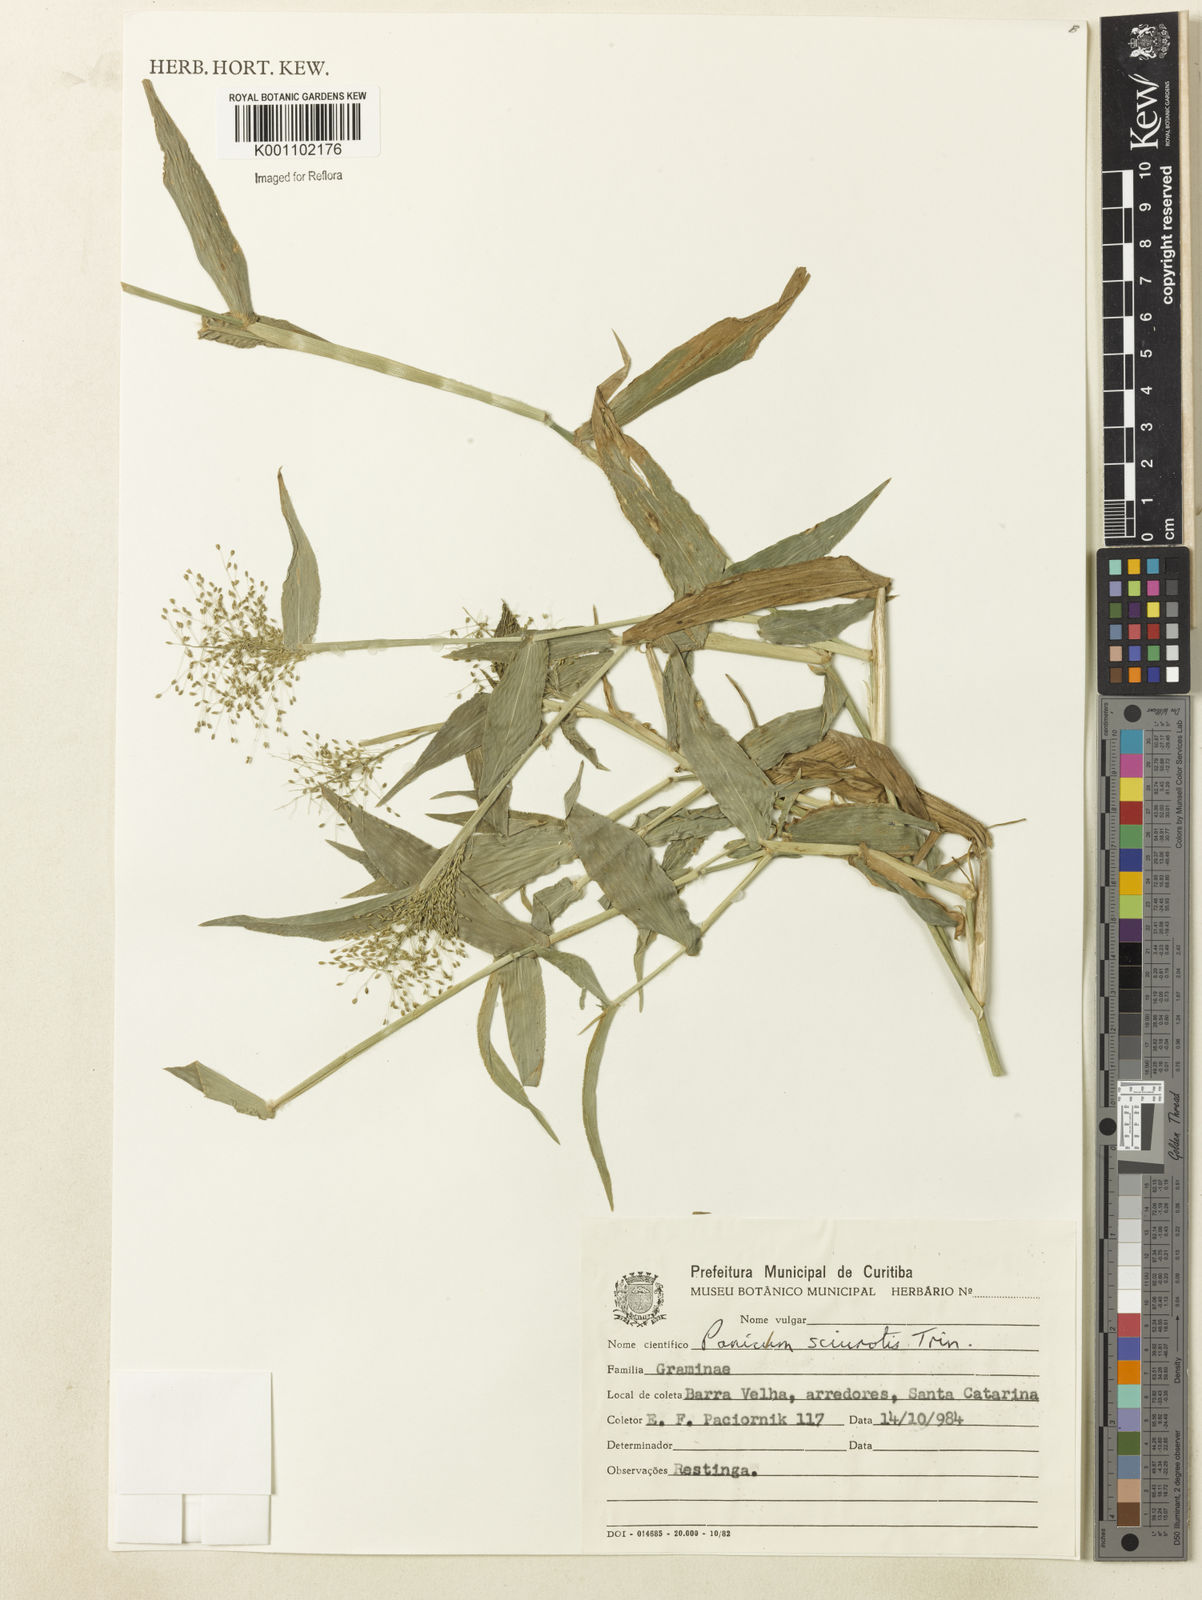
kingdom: Plantae
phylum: Tracheophyta
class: Liliopsida
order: Poales
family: Poaceae
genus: Dichanthelium
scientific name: Dichanthelium sciurotoides
